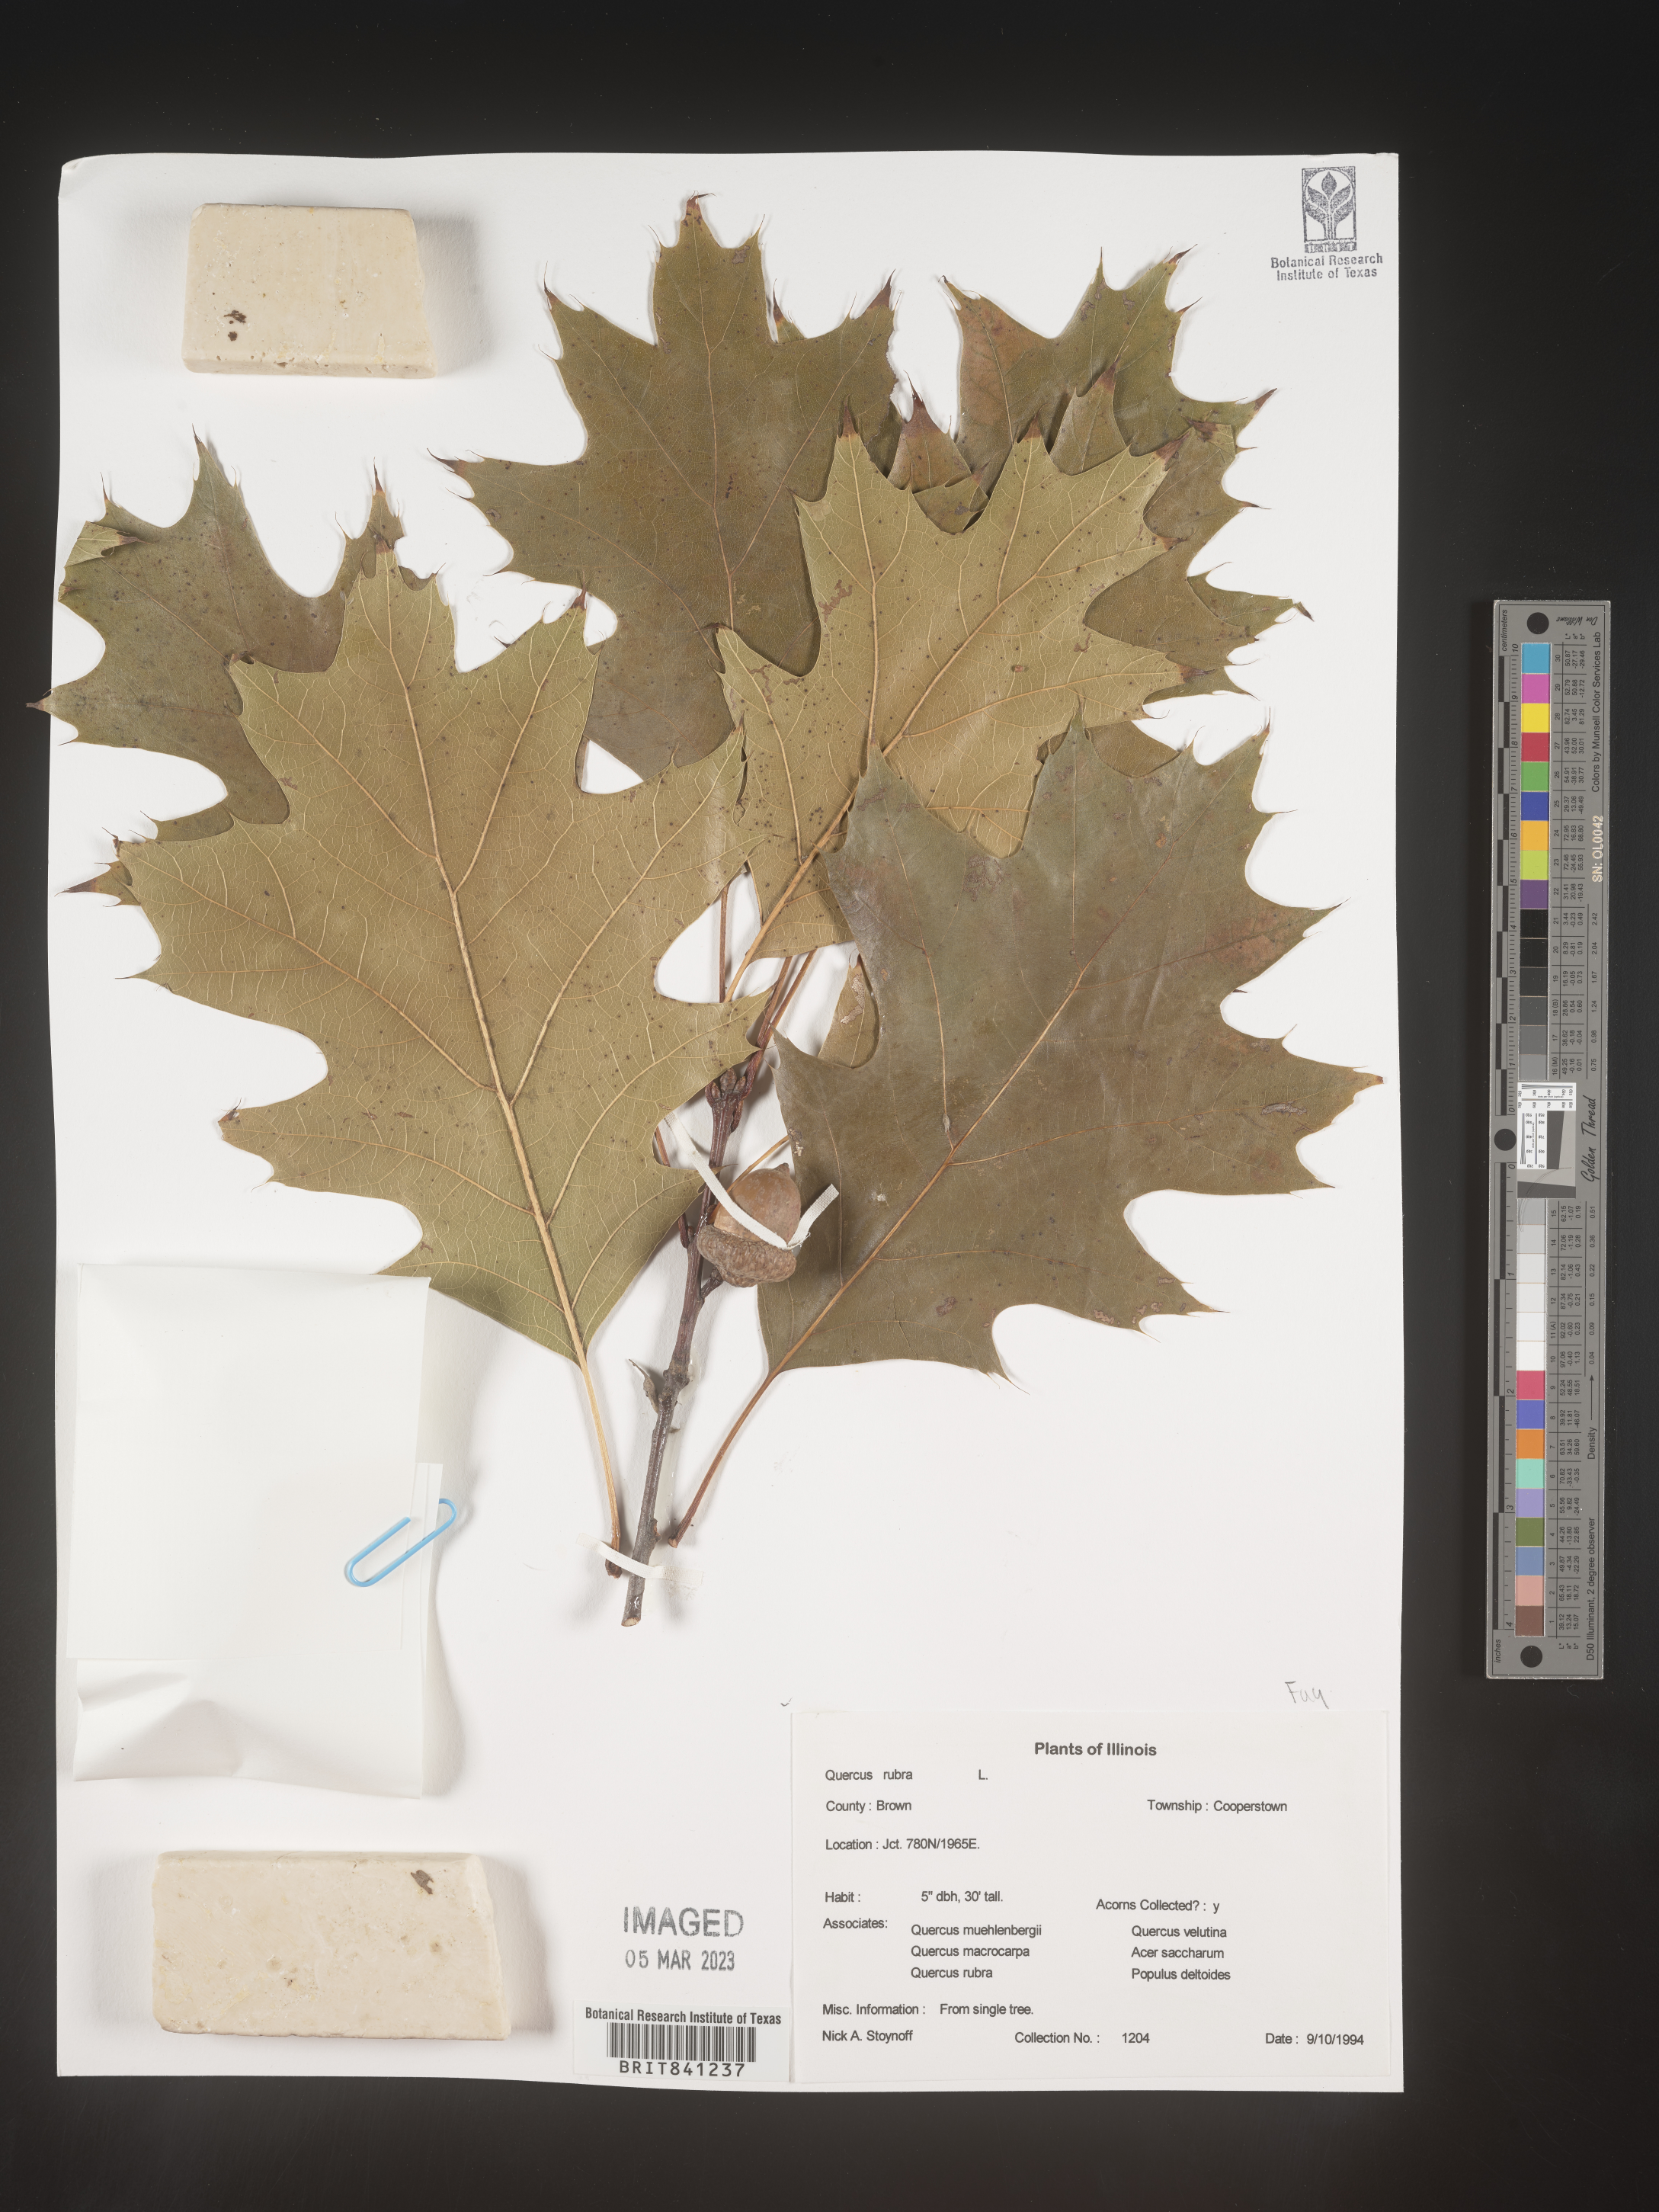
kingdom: Plantae
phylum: Tracheophyta
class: Magnoliopsida
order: Fagales
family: Fagaceae
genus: Quercus
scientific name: Quercus rubra
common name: Red oak
